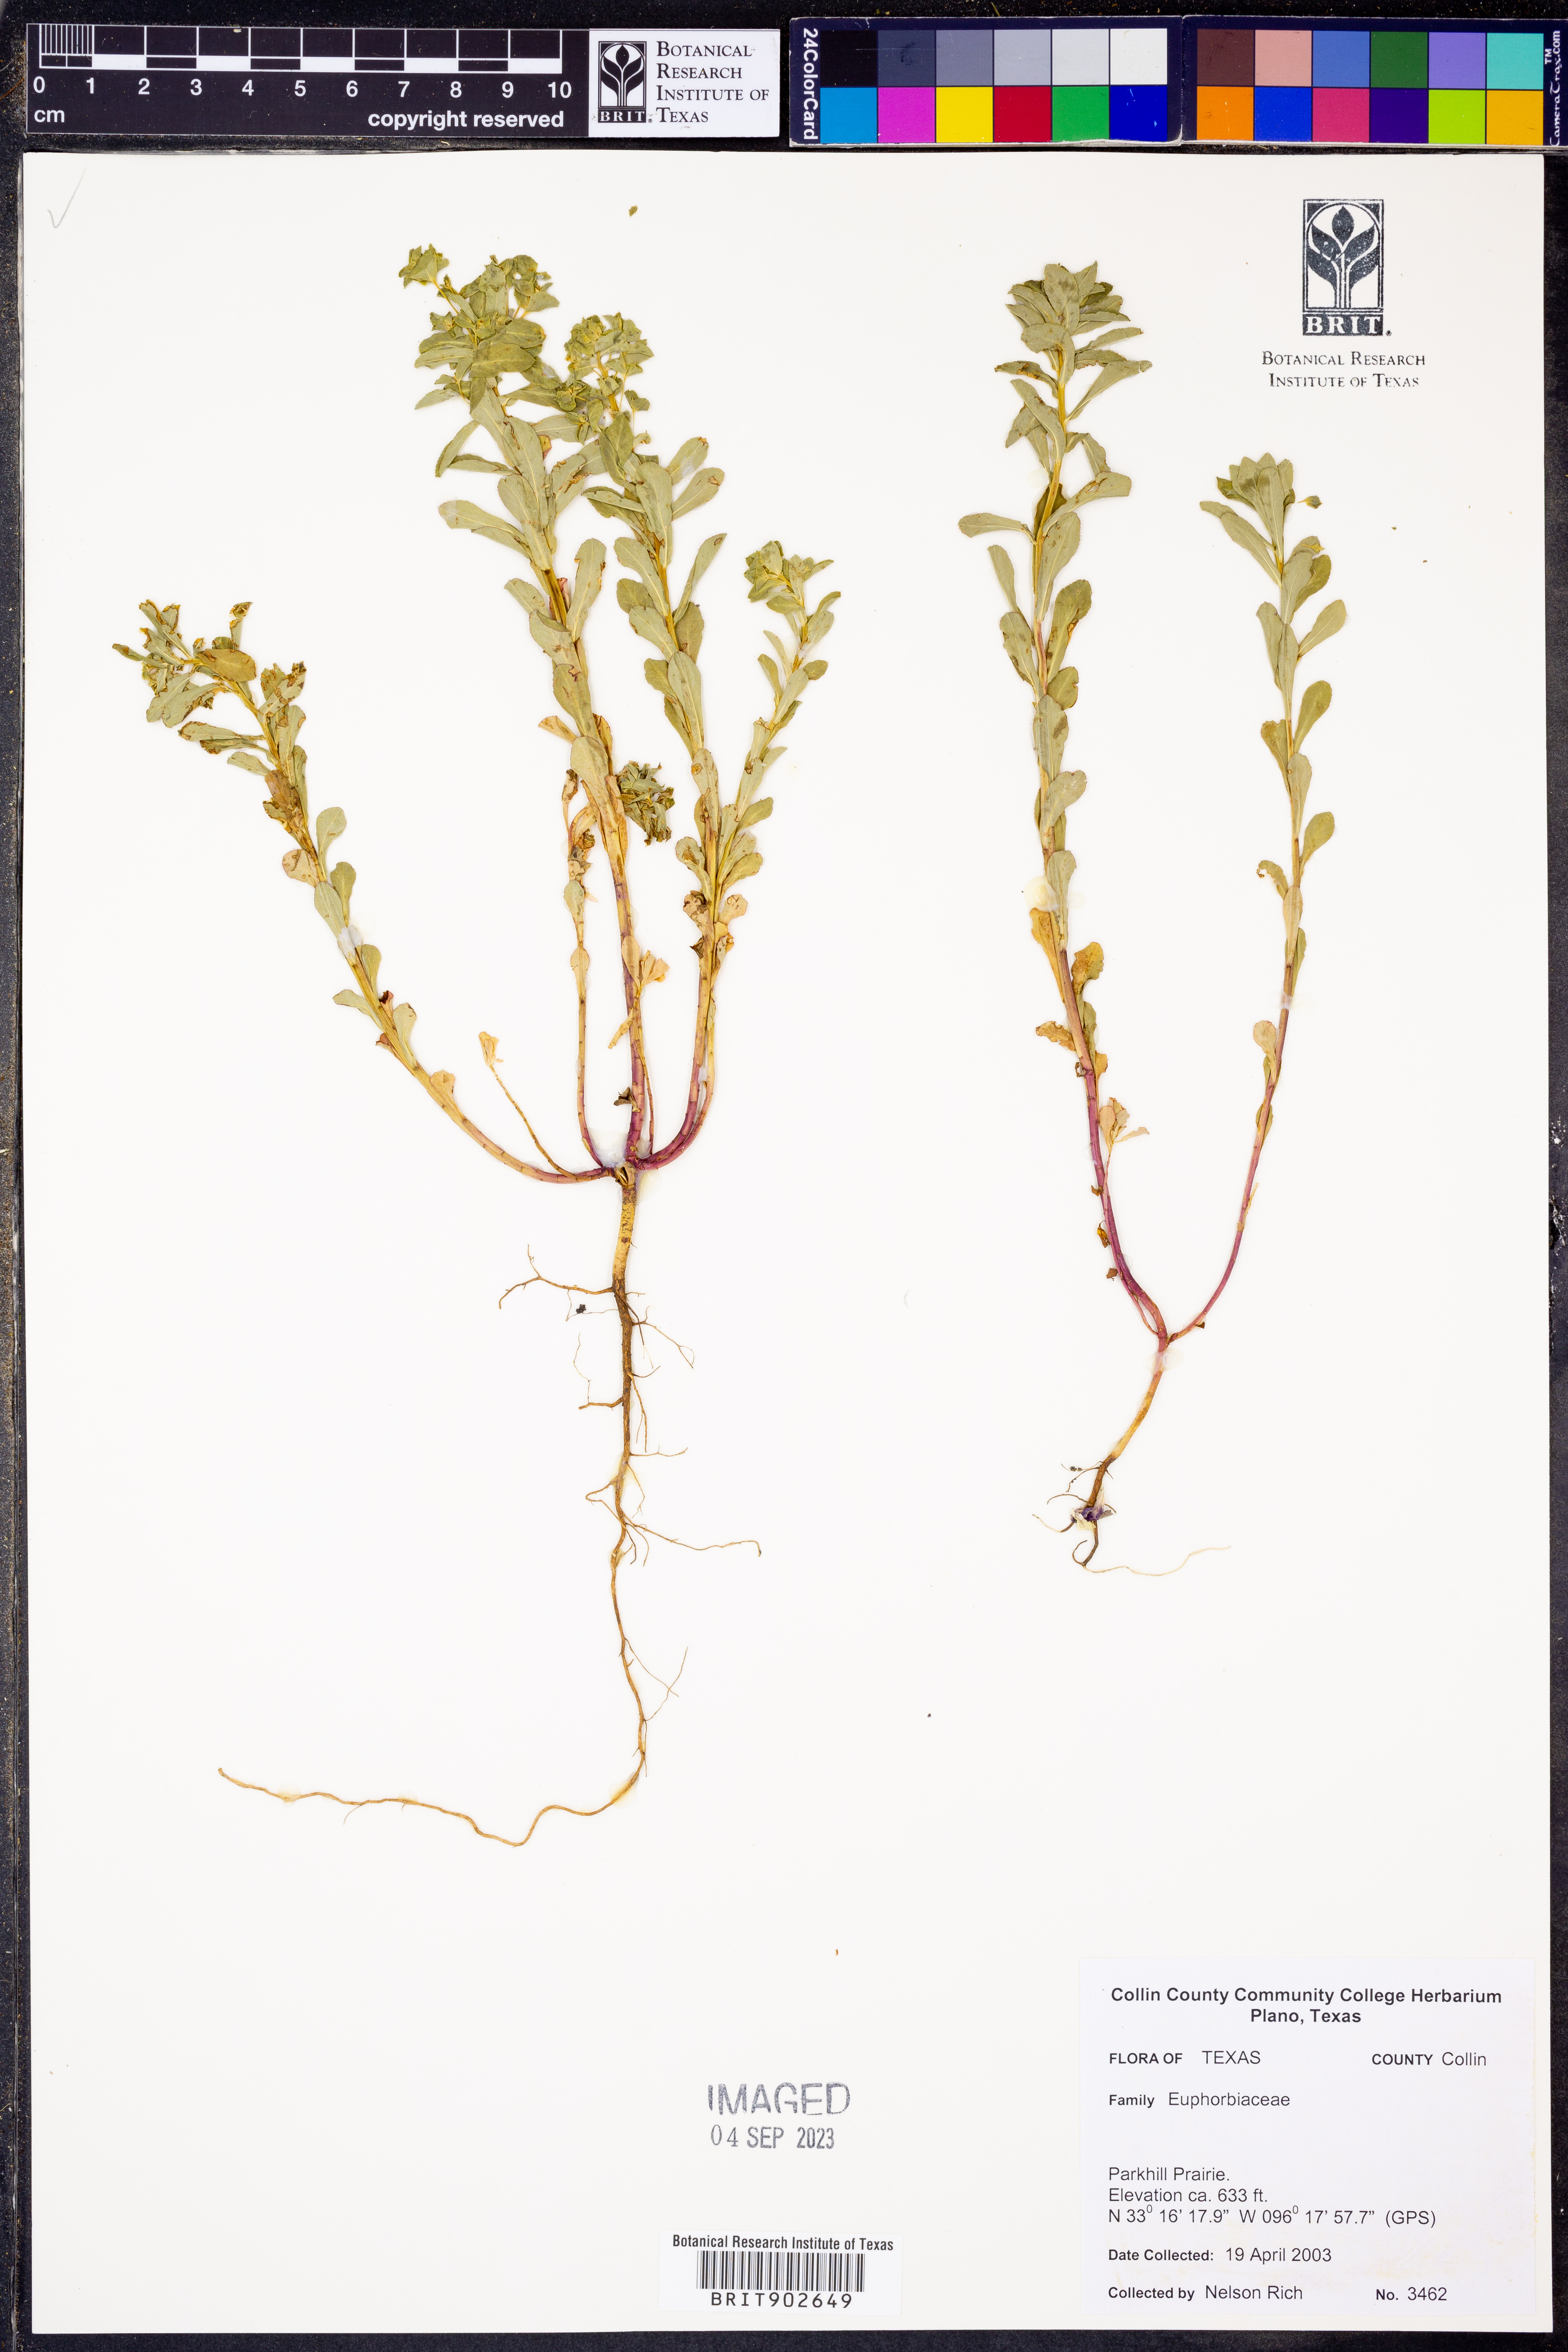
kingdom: Plantae
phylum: Tracheophyta
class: Magnoliopsida
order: Malpighiales
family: Euphorbiaceae
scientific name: Euphorbiaceae
